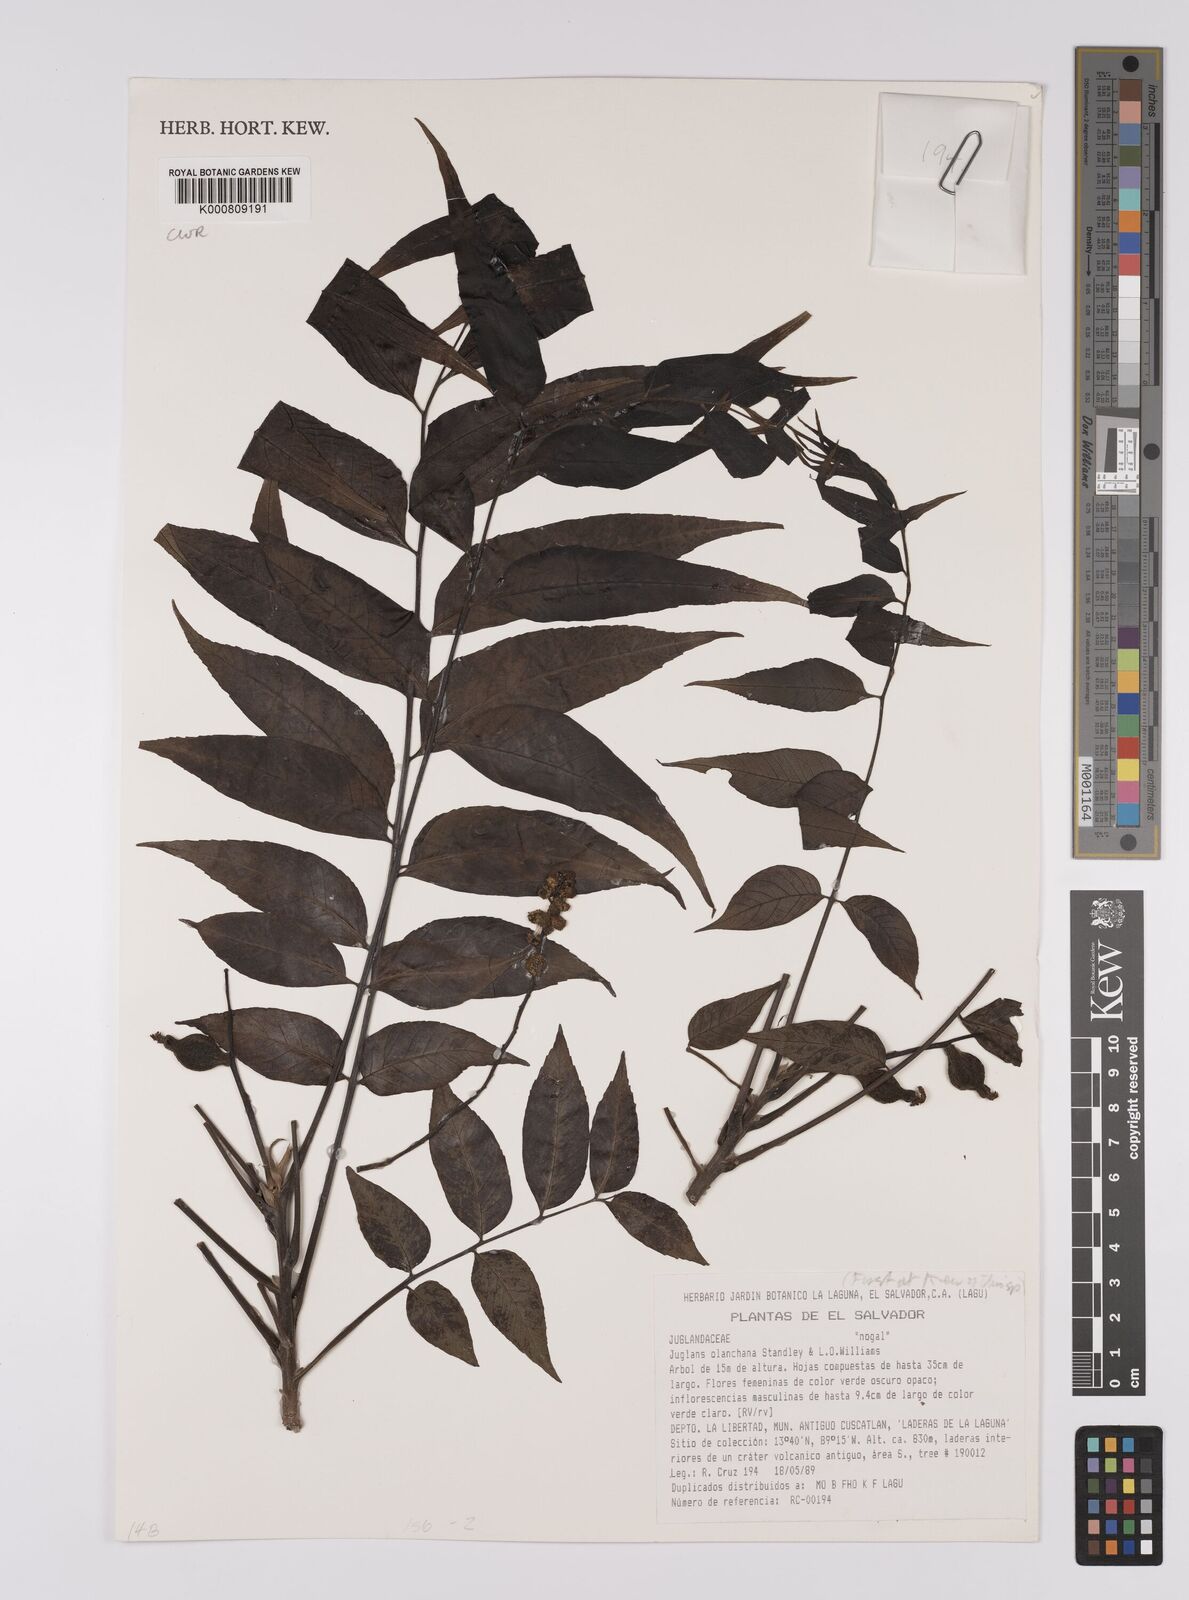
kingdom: Plantae
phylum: Tracheophyta
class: Magnoliopsida
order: Fagales
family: Juglandaceae
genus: Juglans
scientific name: Juglans olanchana
